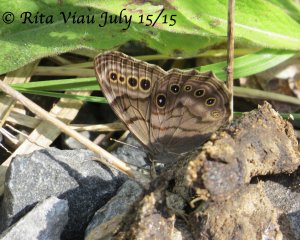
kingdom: Animalia
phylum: Arthropoda
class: Insecta
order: Lepidoptera
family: Nymphalidae
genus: Lethe
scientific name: Lethe anthedon
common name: Northern Pearly-Eye
